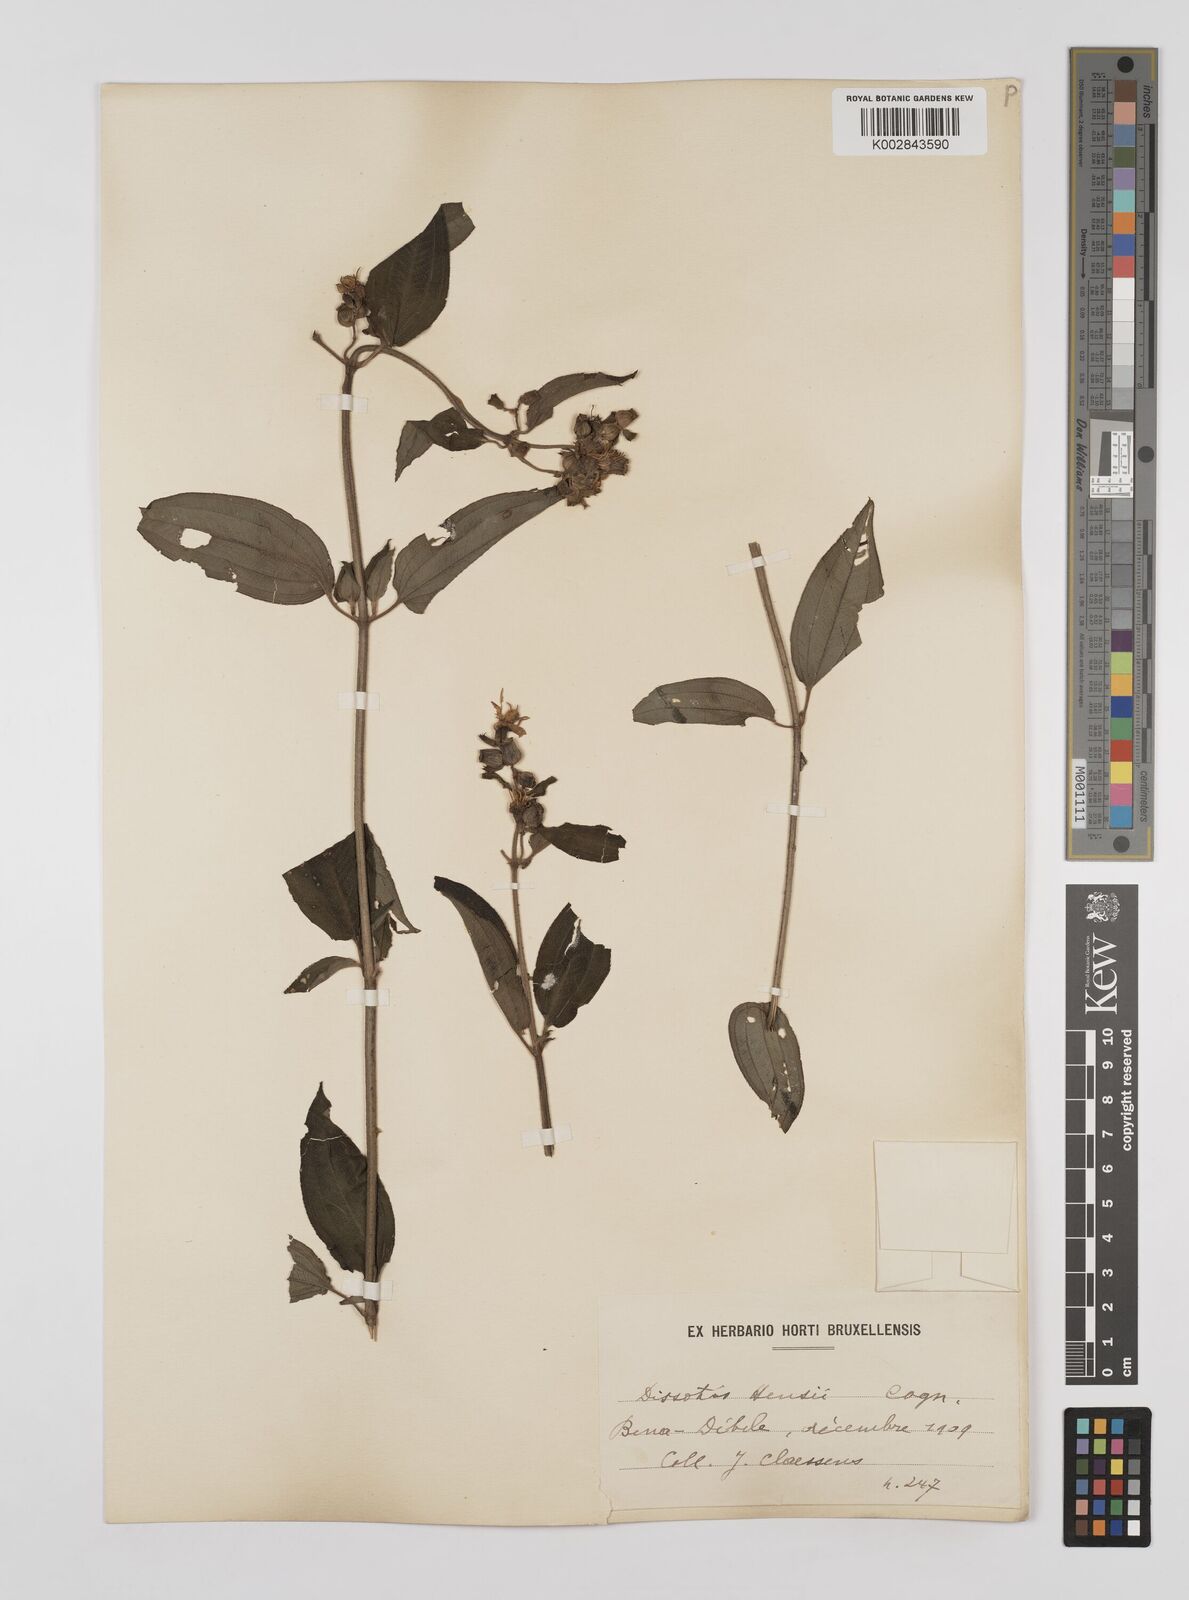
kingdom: Plantae
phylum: Tracheophyta
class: Magnoliopsida
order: Myrtales
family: Melastomataceae
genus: Dupineta
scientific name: Dupineta hensii
